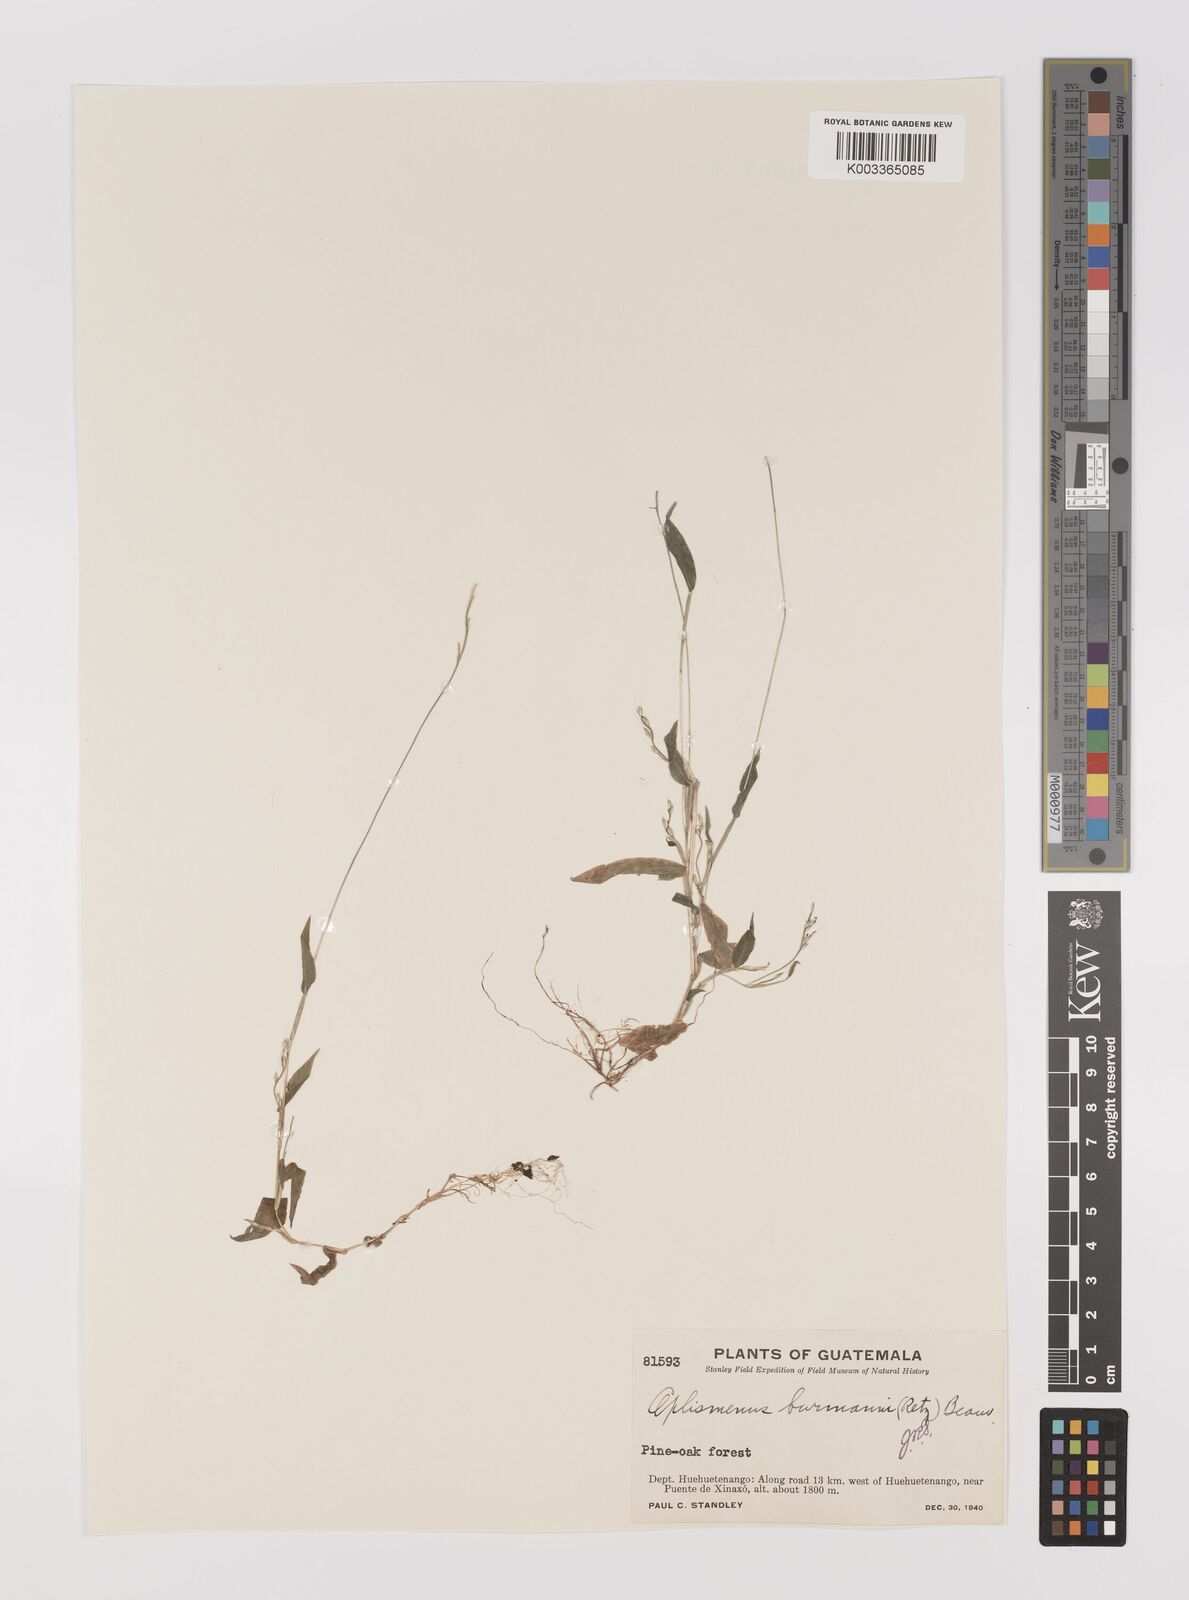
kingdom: Plantae
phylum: Tracheophyta
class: Liliopsida
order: Poales
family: Poaceae
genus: Oplismenus
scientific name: Oplismenus burmanni
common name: Burmann's basketgrass
